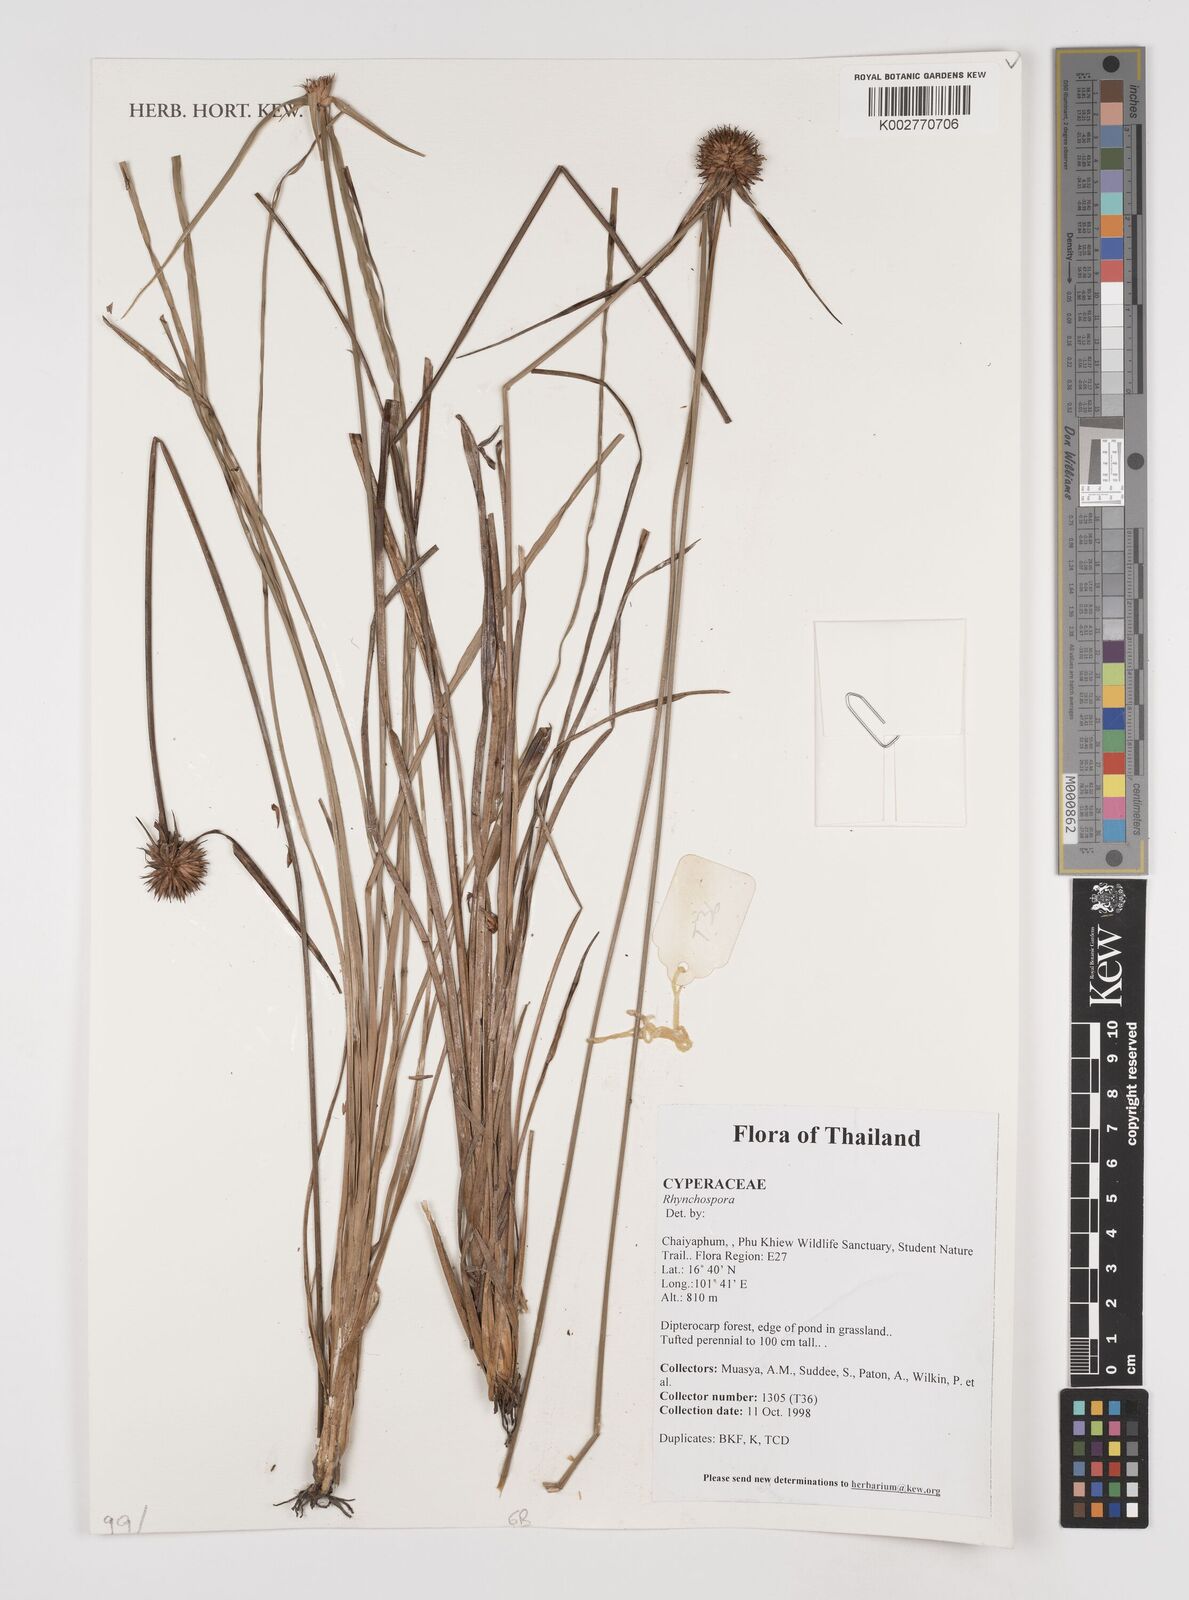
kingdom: Plantae
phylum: Tracheophyta
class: Liliopsida
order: Poales
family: Cyperaceae
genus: Rhynchospora
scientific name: Rhynchospora
